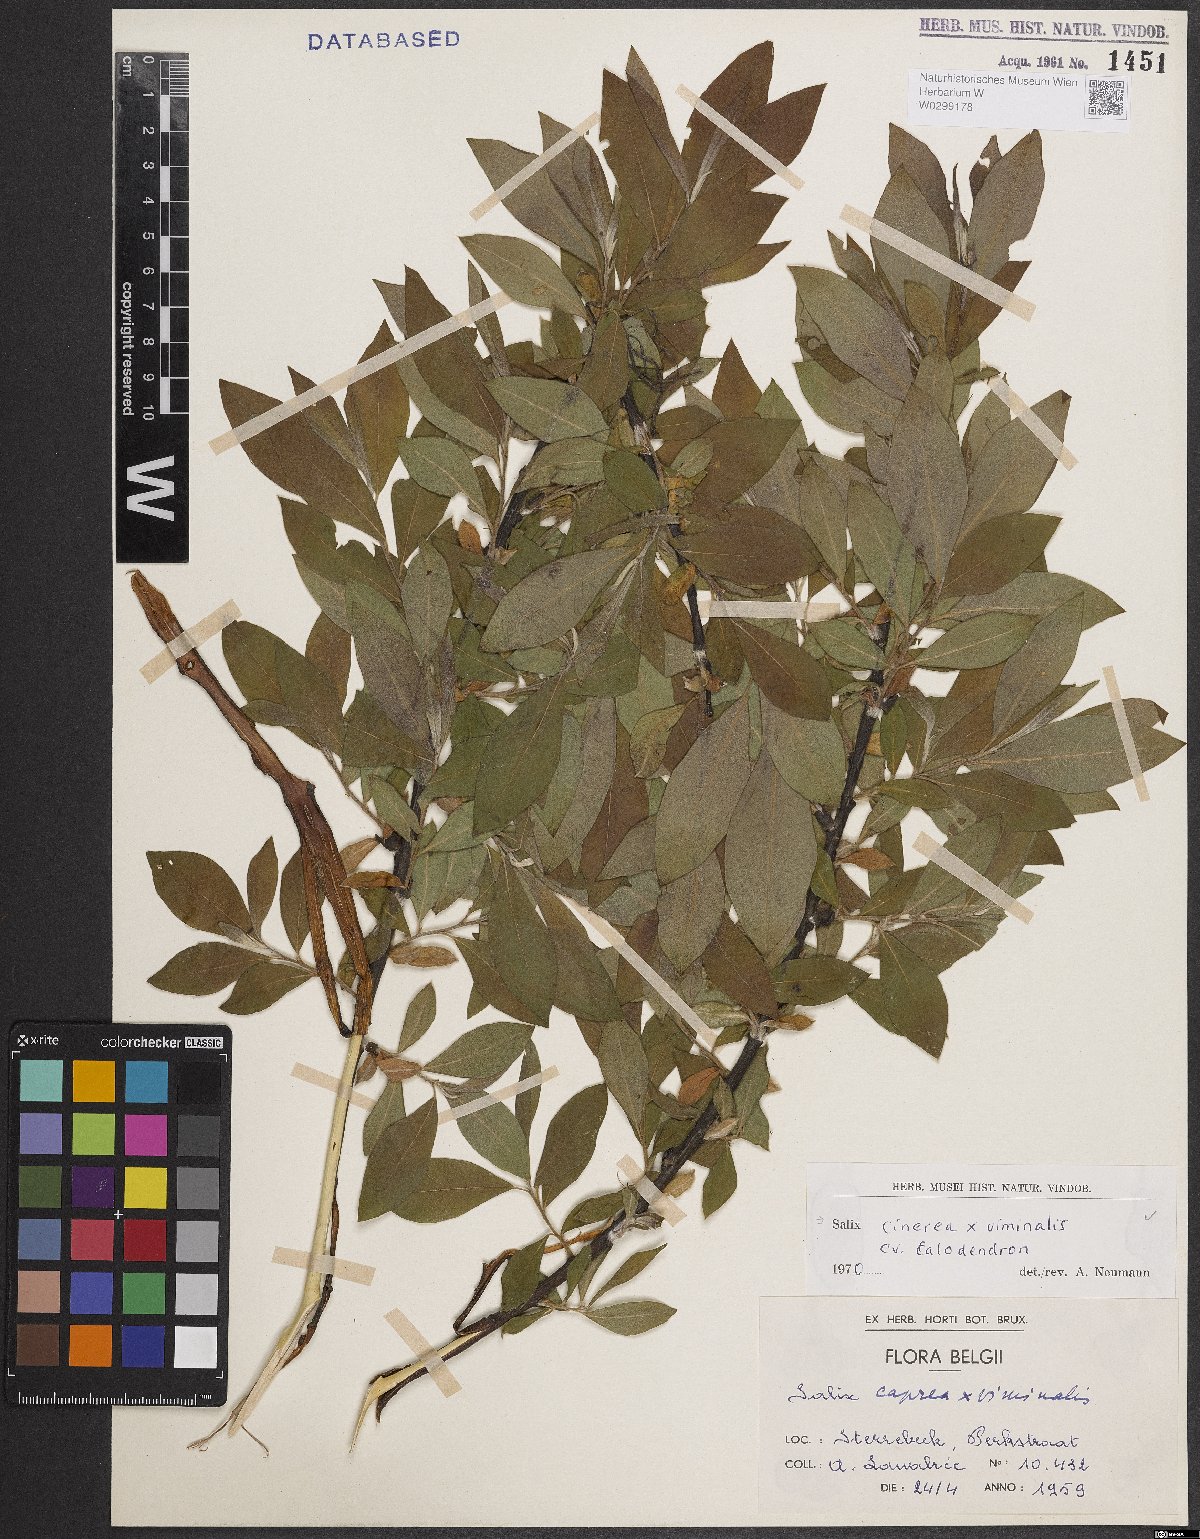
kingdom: Plantae
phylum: Tracheophyta
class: Magnoliopsida
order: Malpighiales
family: Salicaceae
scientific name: Salicaceae
